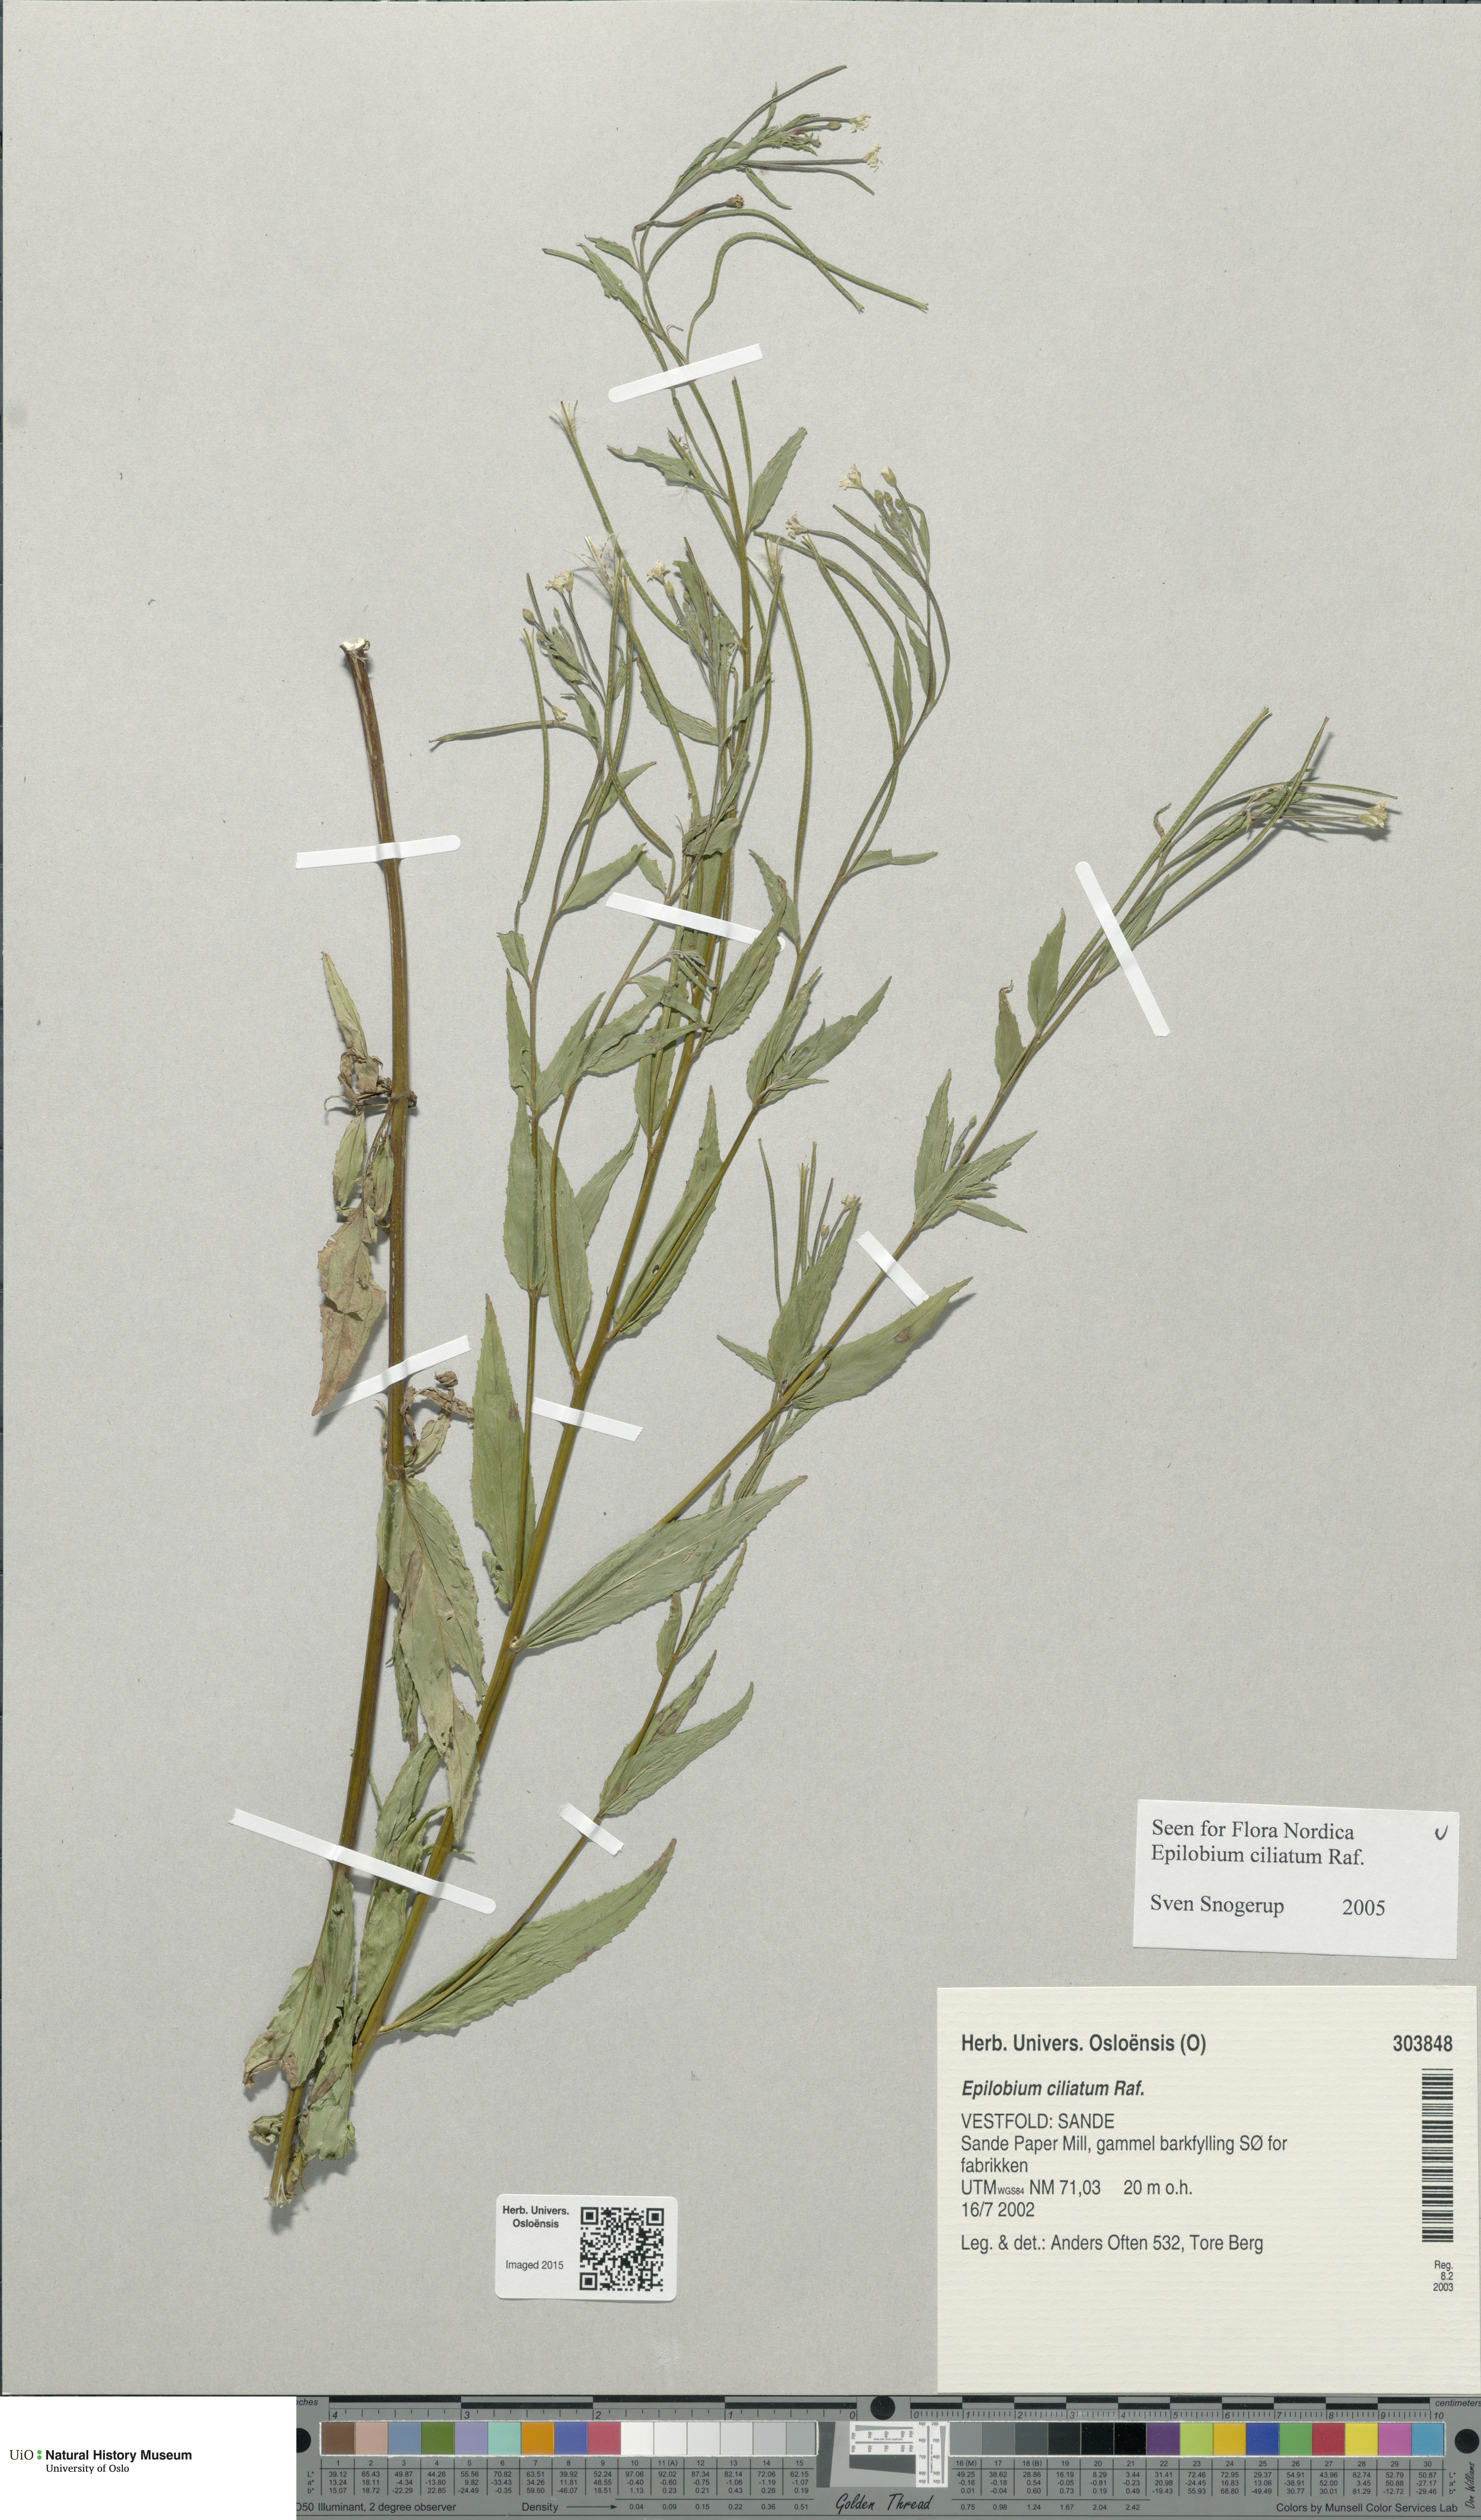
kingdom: Plantae
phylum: Tracheophyta
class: Magnoliopsida
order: Myrtales
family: Onagraceae
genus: Epilobium
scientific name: Epilobium ciliatum
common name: American willowherb
